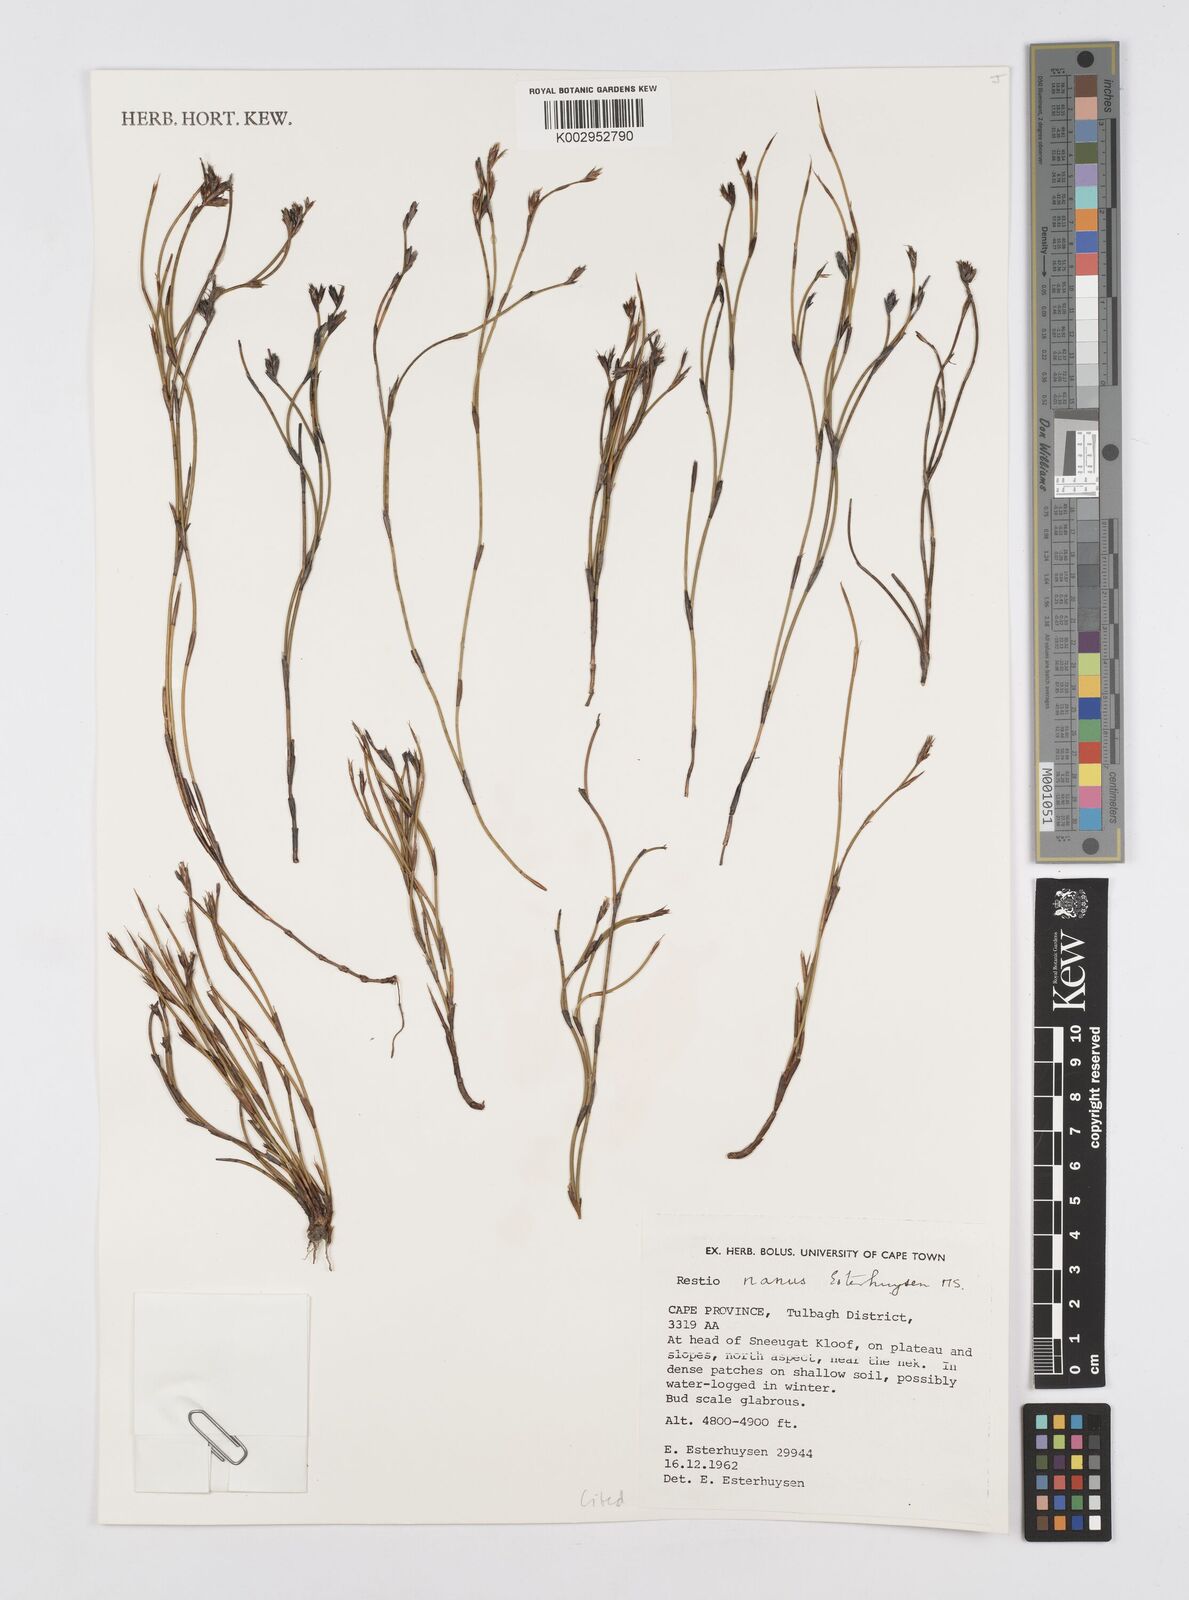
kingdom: Plantae
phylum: Tracheophyta
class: Liliopsida
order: Poales
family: Restionaceae
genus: Restio
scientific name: Restio nanus
